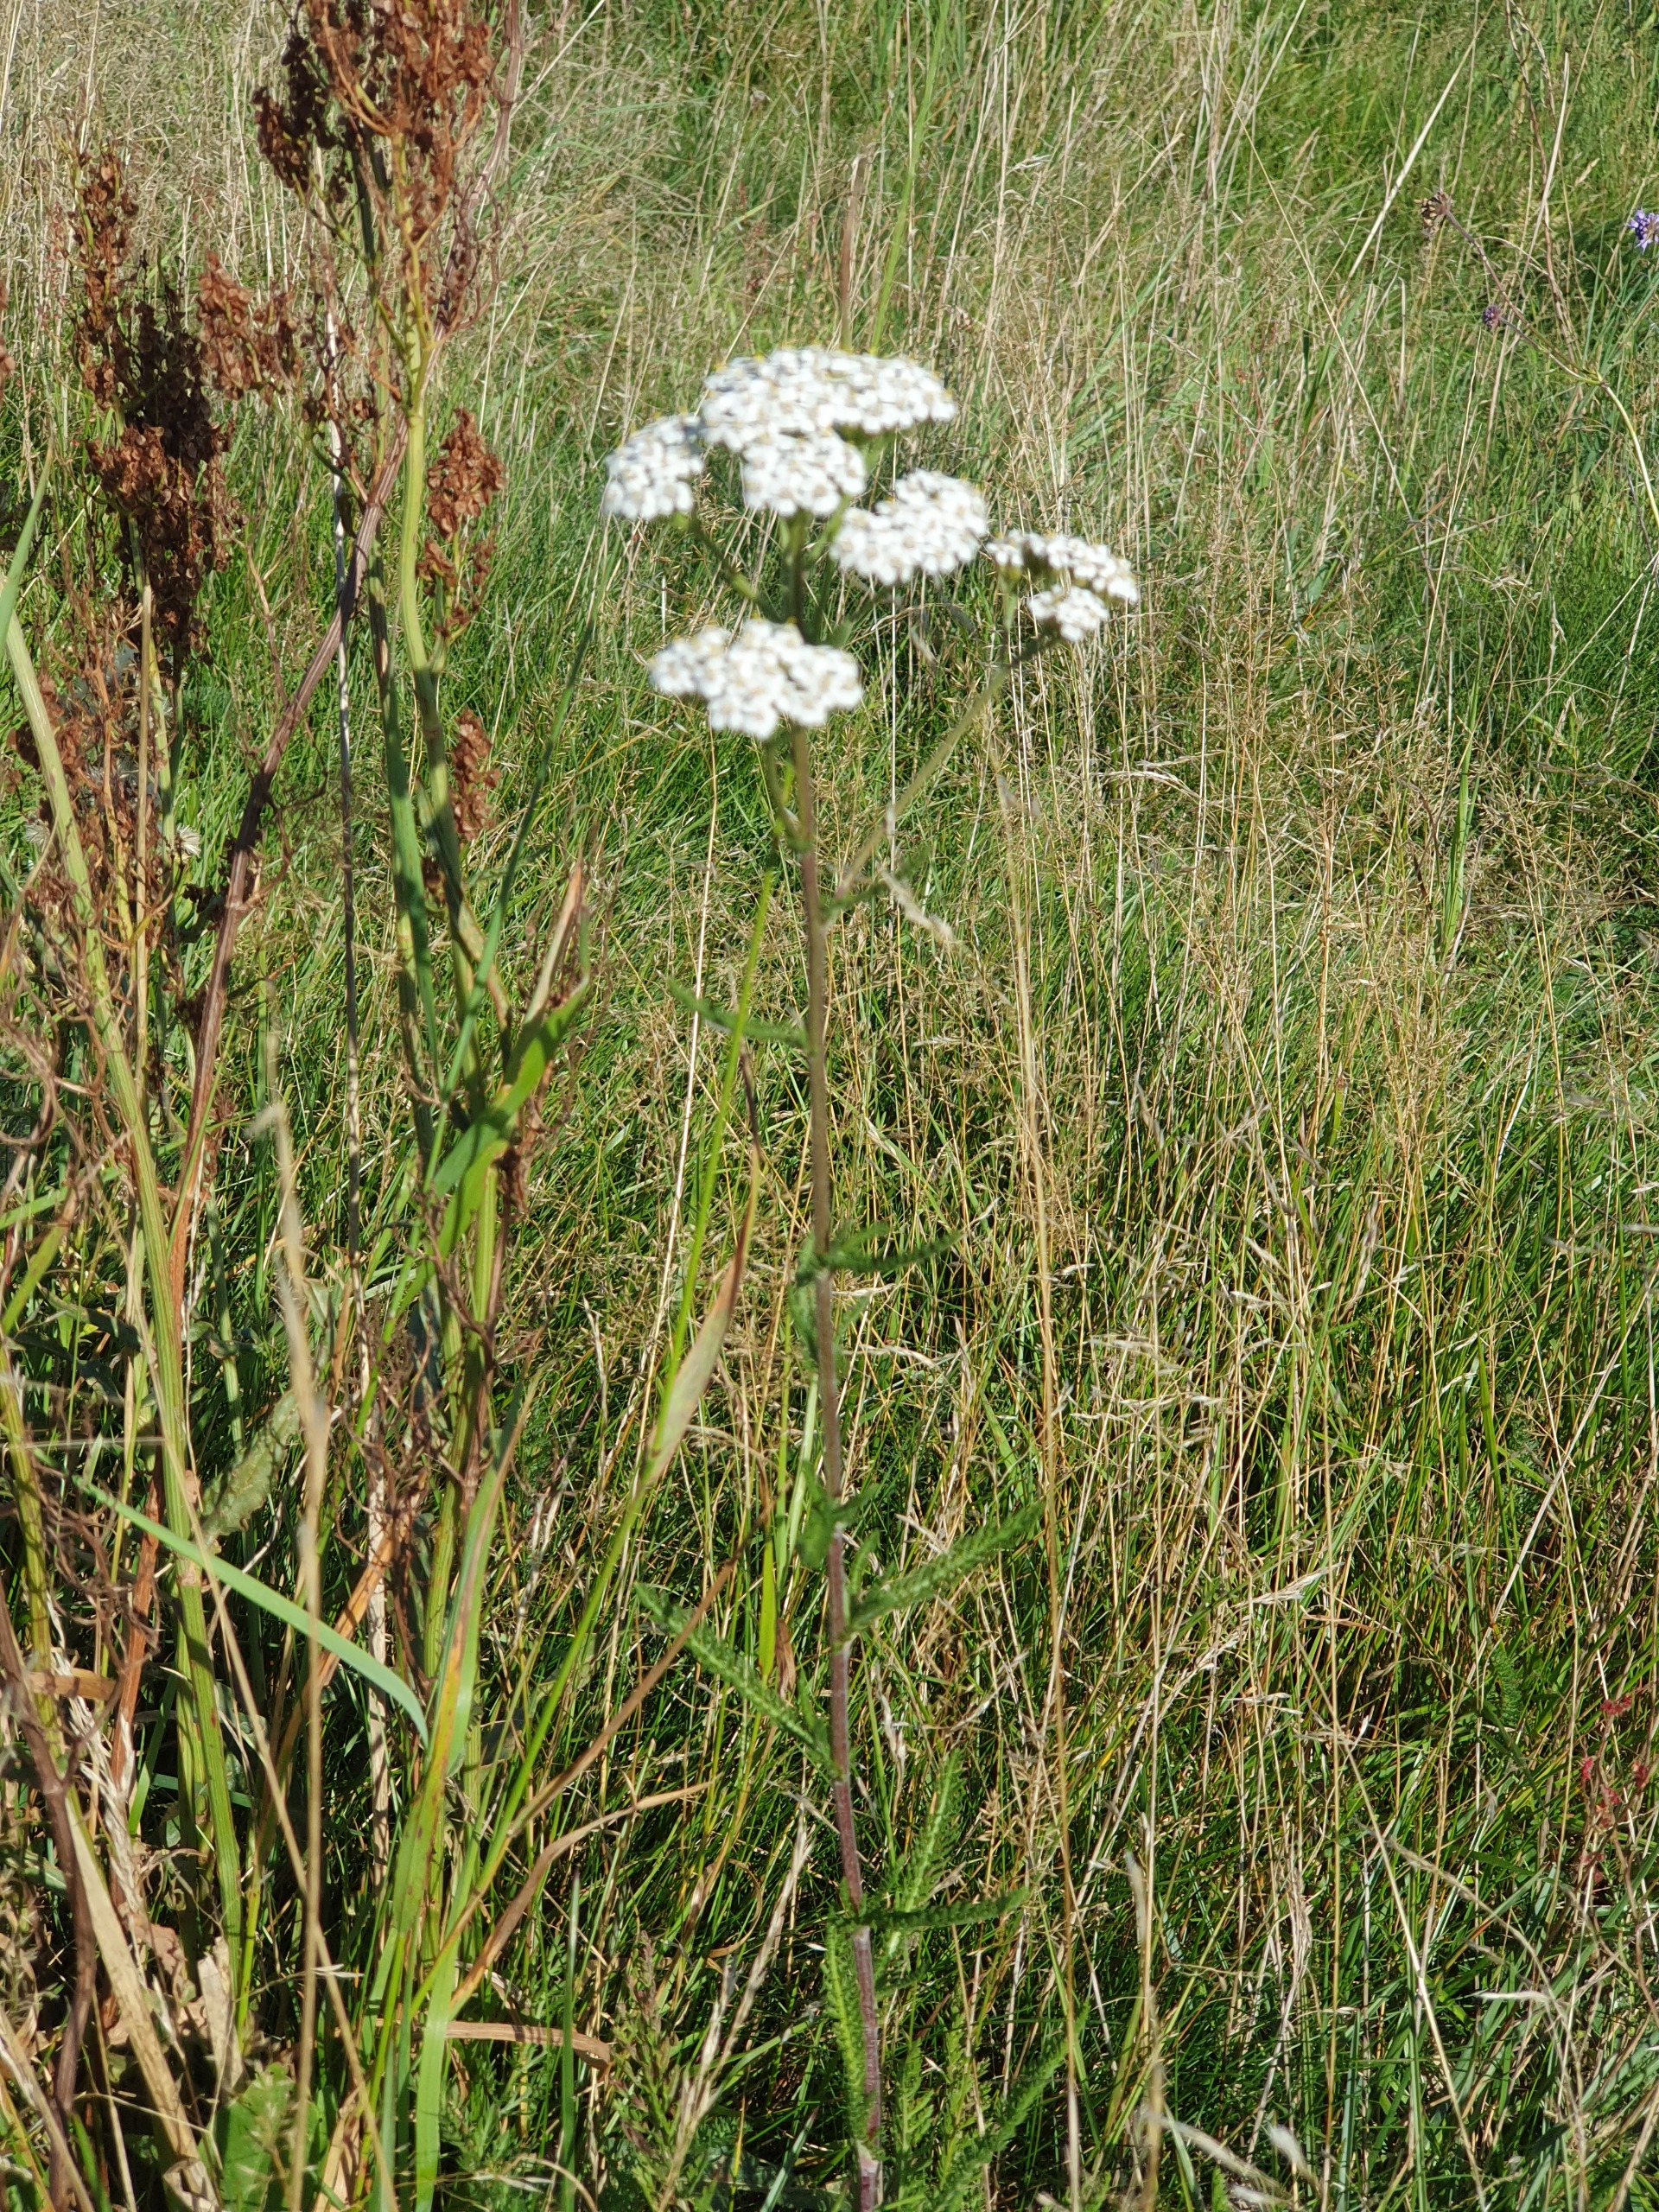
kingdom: Plantae
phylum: Tracheophyta
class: Magnoliopsida
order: Asterales
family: Asteraceae
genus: Achillea
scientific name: Achillea millefolium
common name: Almindelig røllike
